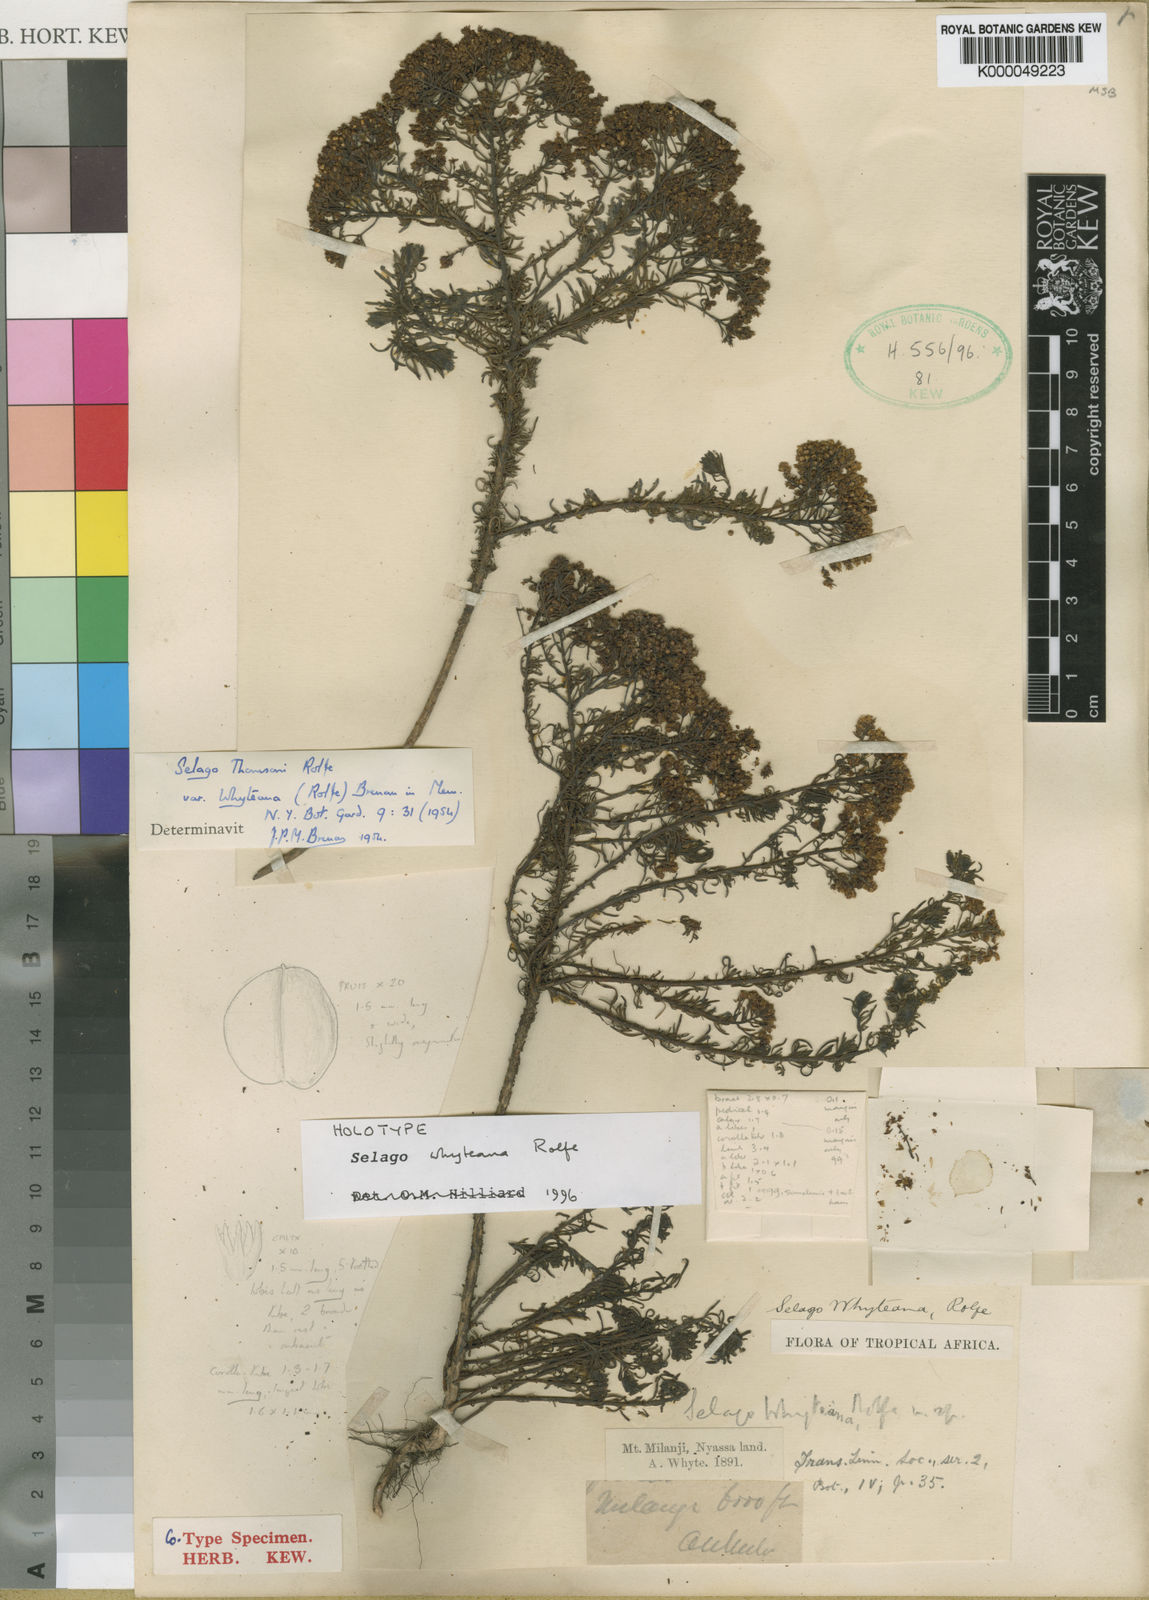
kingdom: Plantae
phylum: Tracheophyta
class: Magnoliopsida
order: Lamiales
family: Scrophulariaceae
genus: Selago
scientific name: Selago thomsonii
